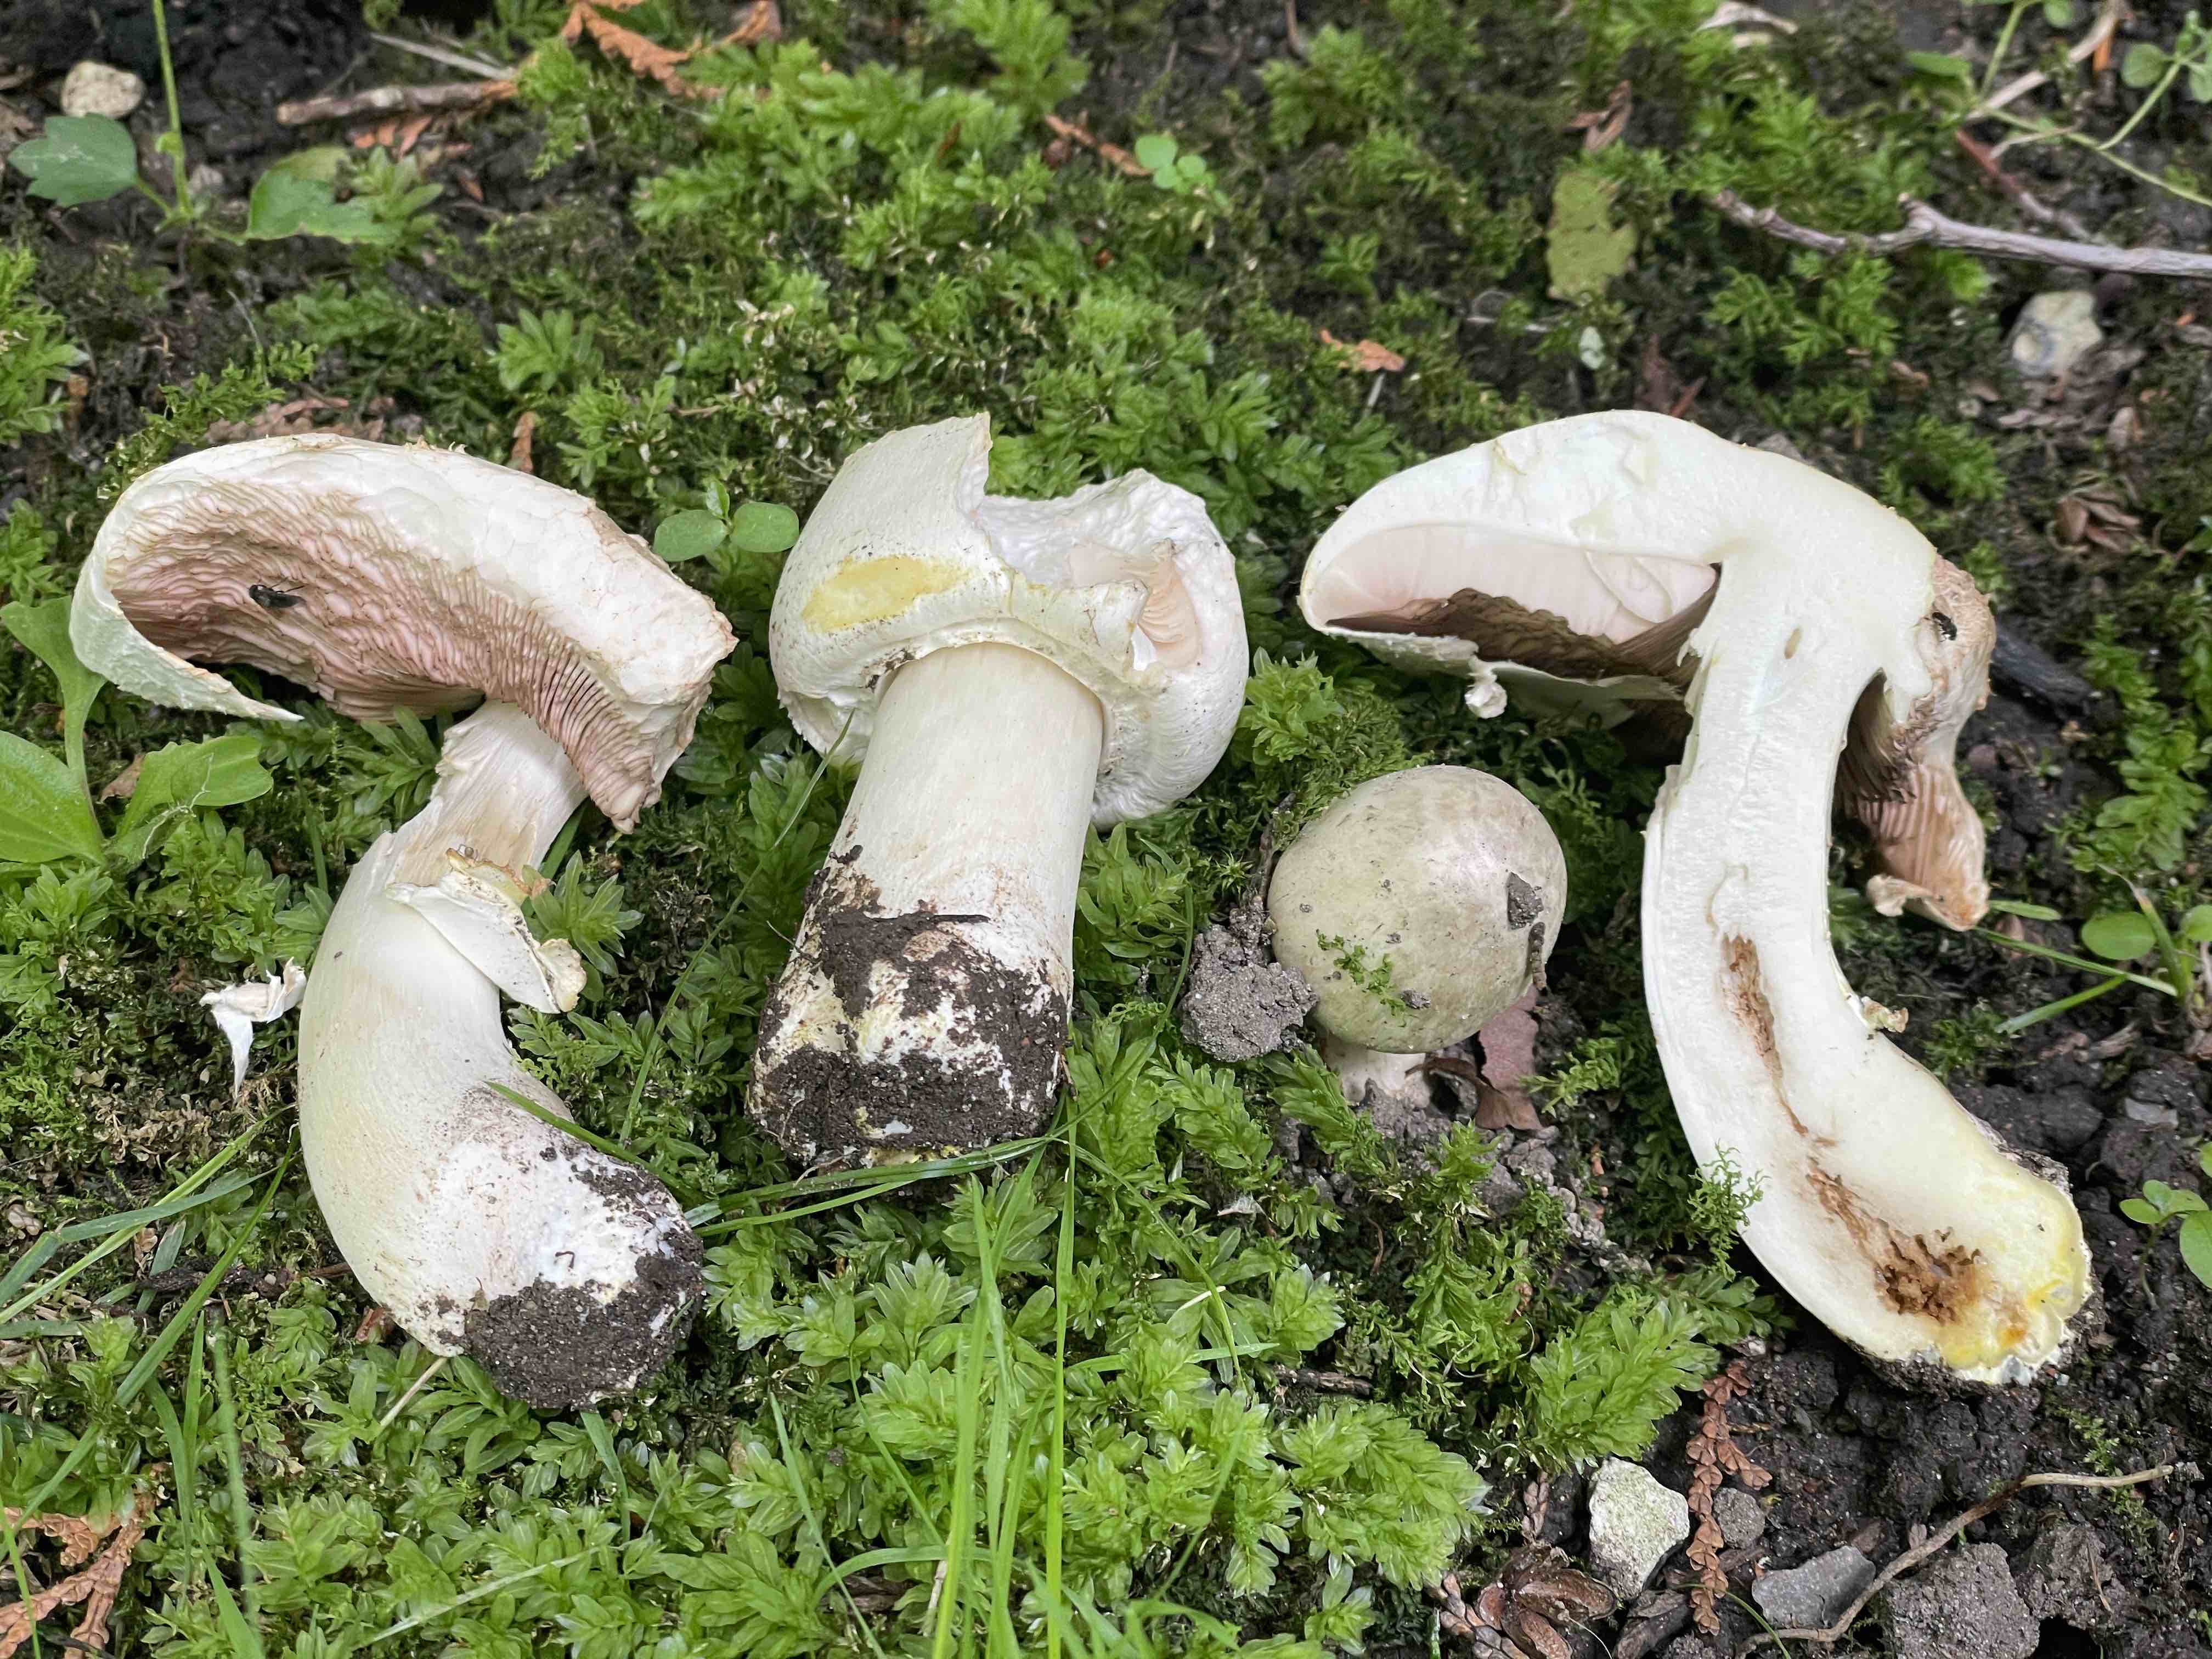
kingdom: Fungi
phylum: Basidiomycota
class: Agaricomycetes
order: Agaricales
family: Agaricaceae
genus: Agaricus
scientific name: Agaricus xanthodermus
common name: karbol-champignon
